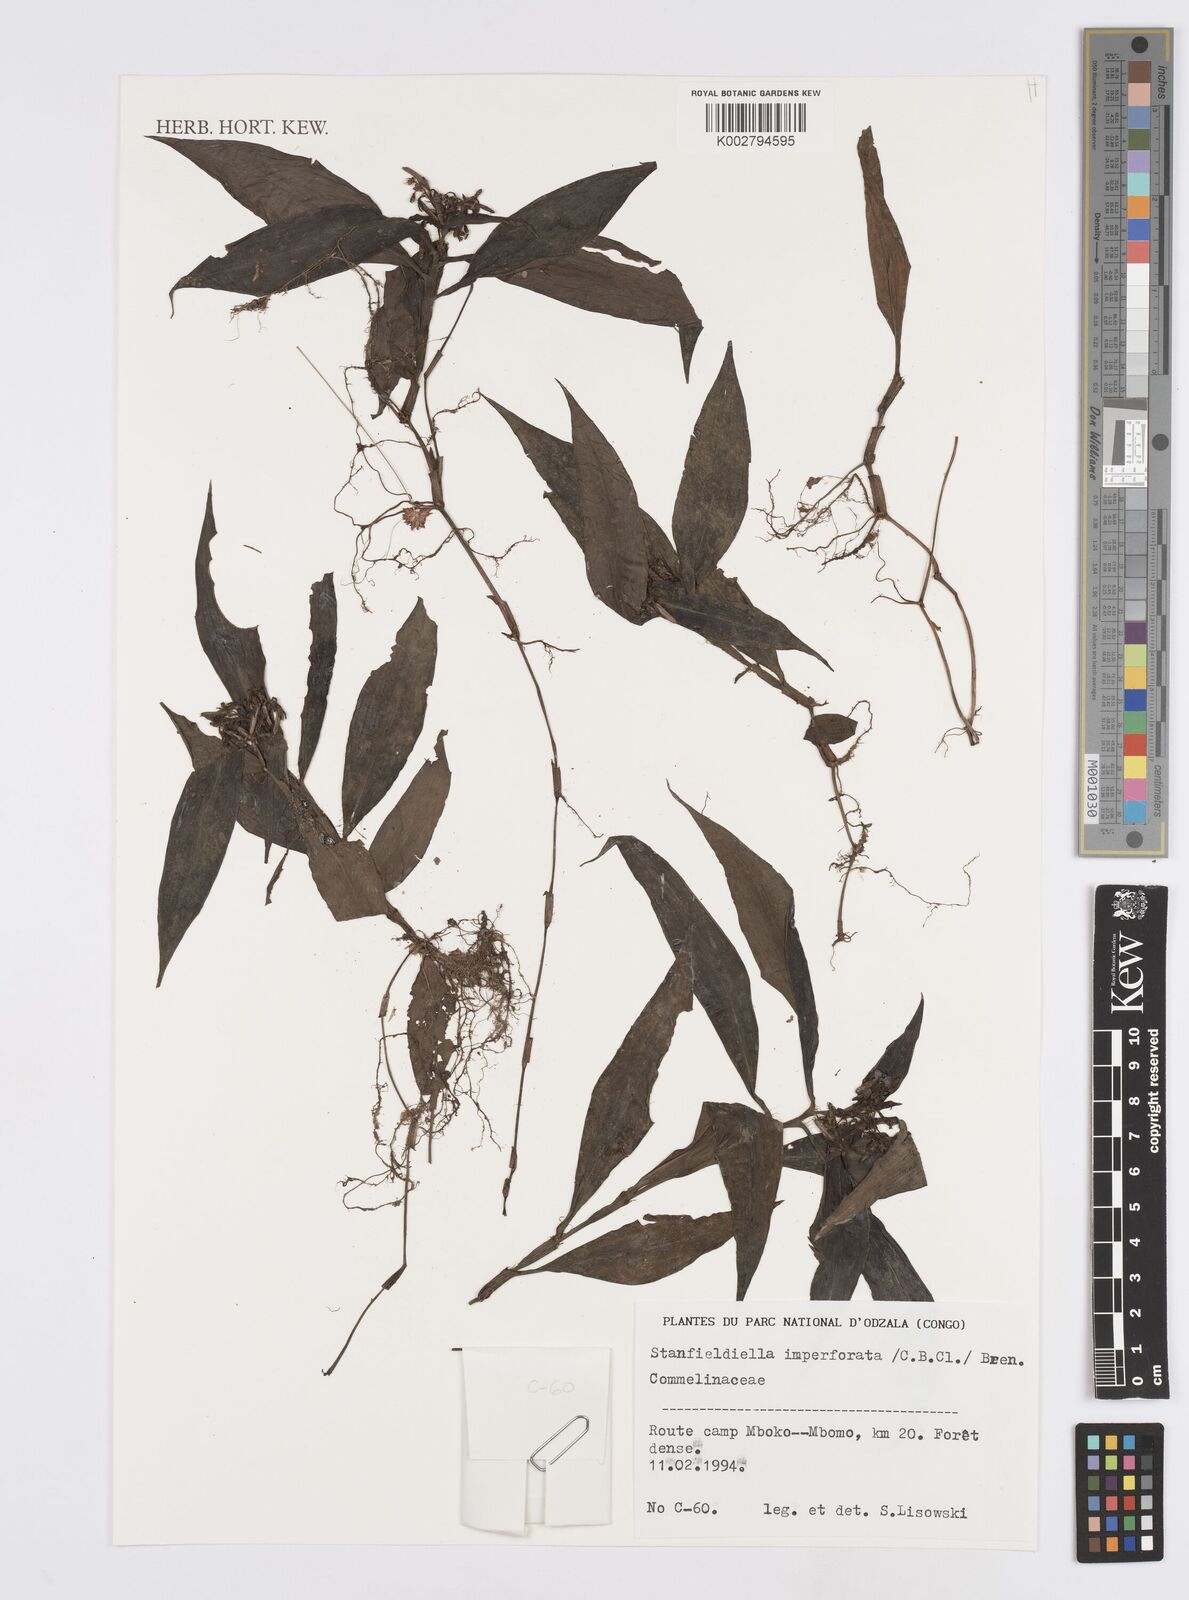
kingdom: Plantae
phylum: Tracheophyta
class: Liliopsida
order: Commelinales
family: Commelinaceae
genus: Stanfieldiella
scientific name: Stanfieldiella imperforata
